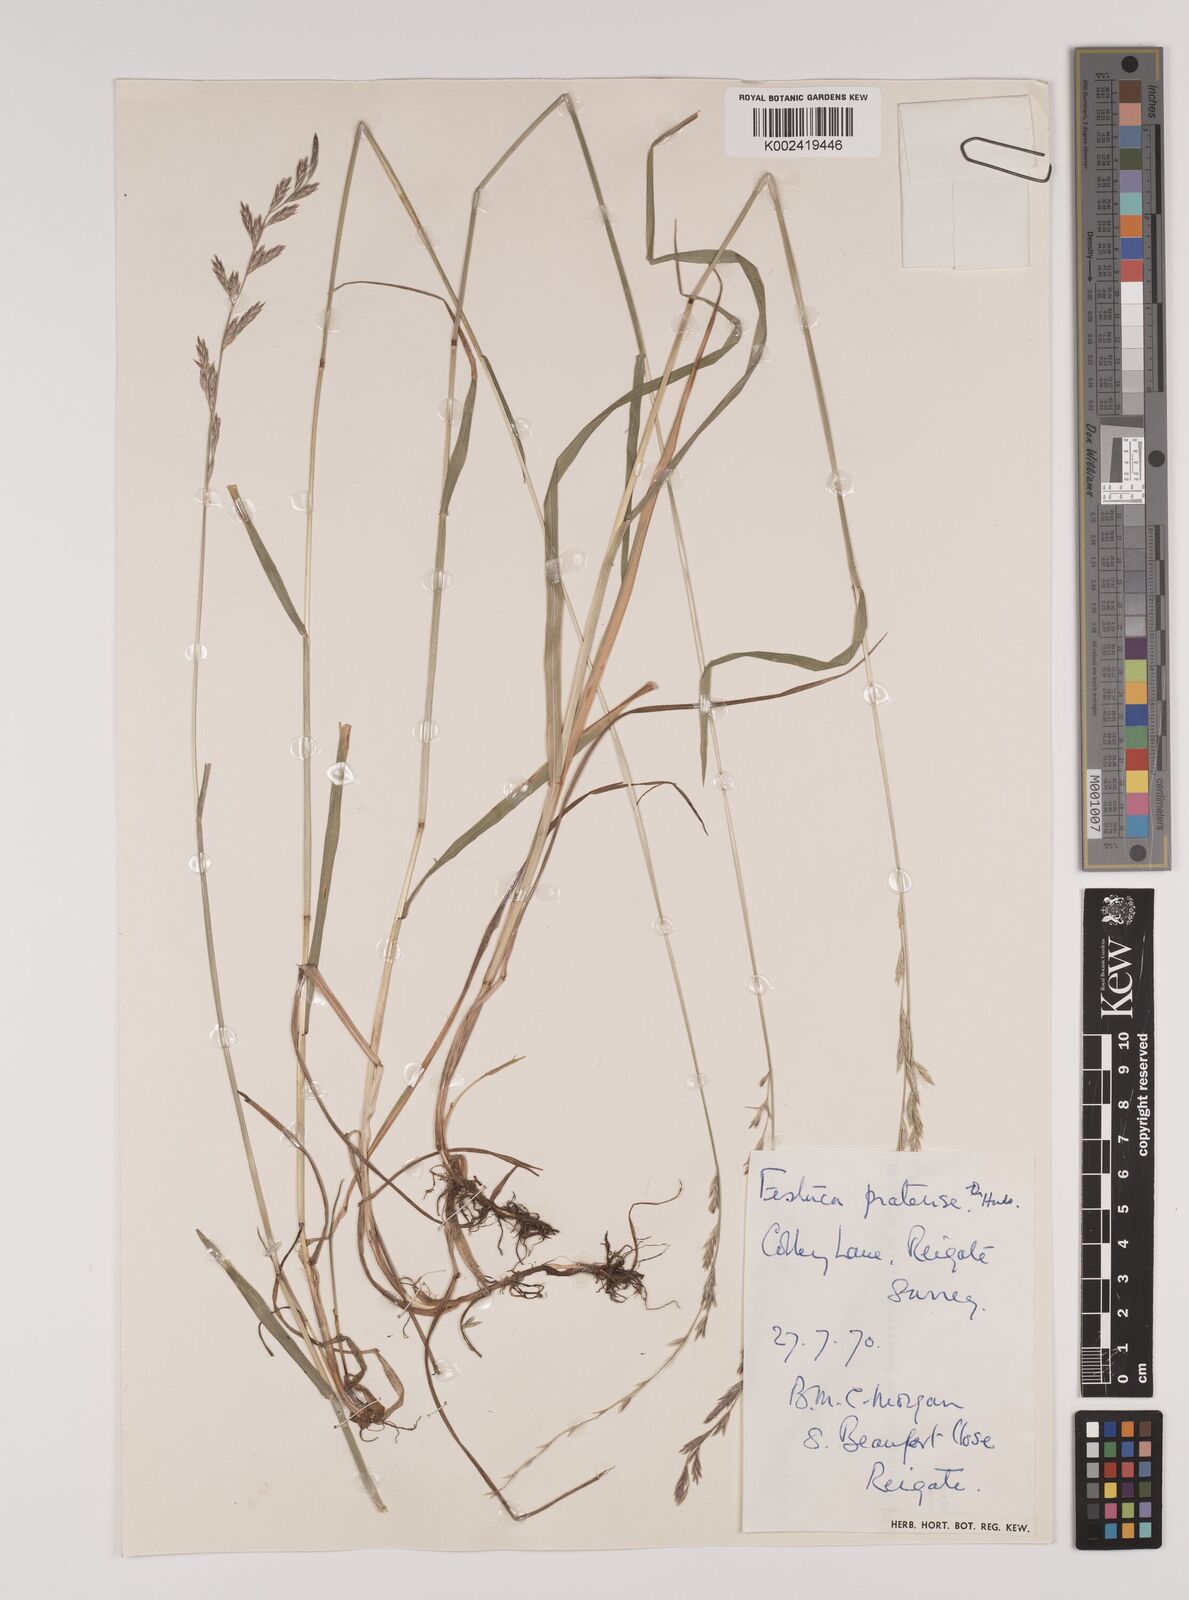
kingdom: Plantae
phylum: Tracheophyta
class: Liliopsida
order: Poales
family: Poaceae
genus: Lolium
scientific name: Lolium pratense
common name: Dover grass
